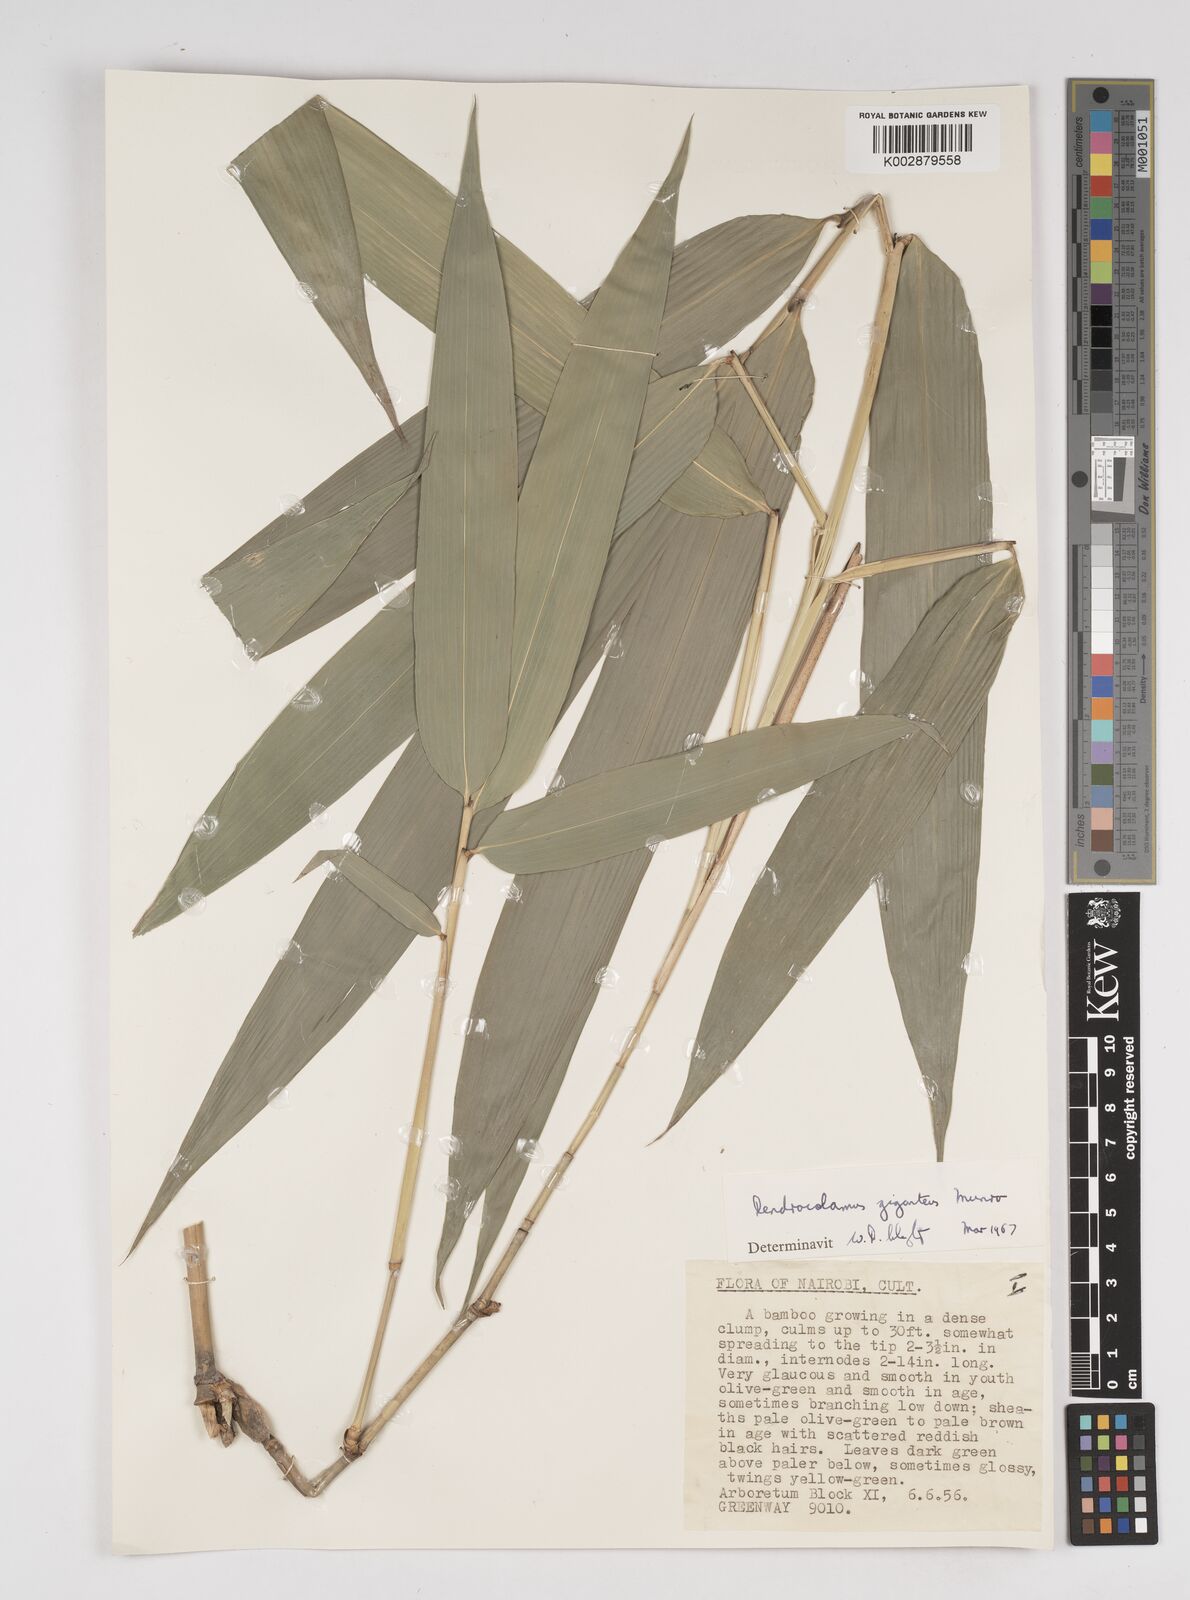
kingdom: Plantae
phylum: Tracheophyta
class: Liliopsida
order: Poales
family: Poaceae
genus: Dendrocalamus
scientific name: Dendrocalamus giganteus
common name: Giant bamboo
